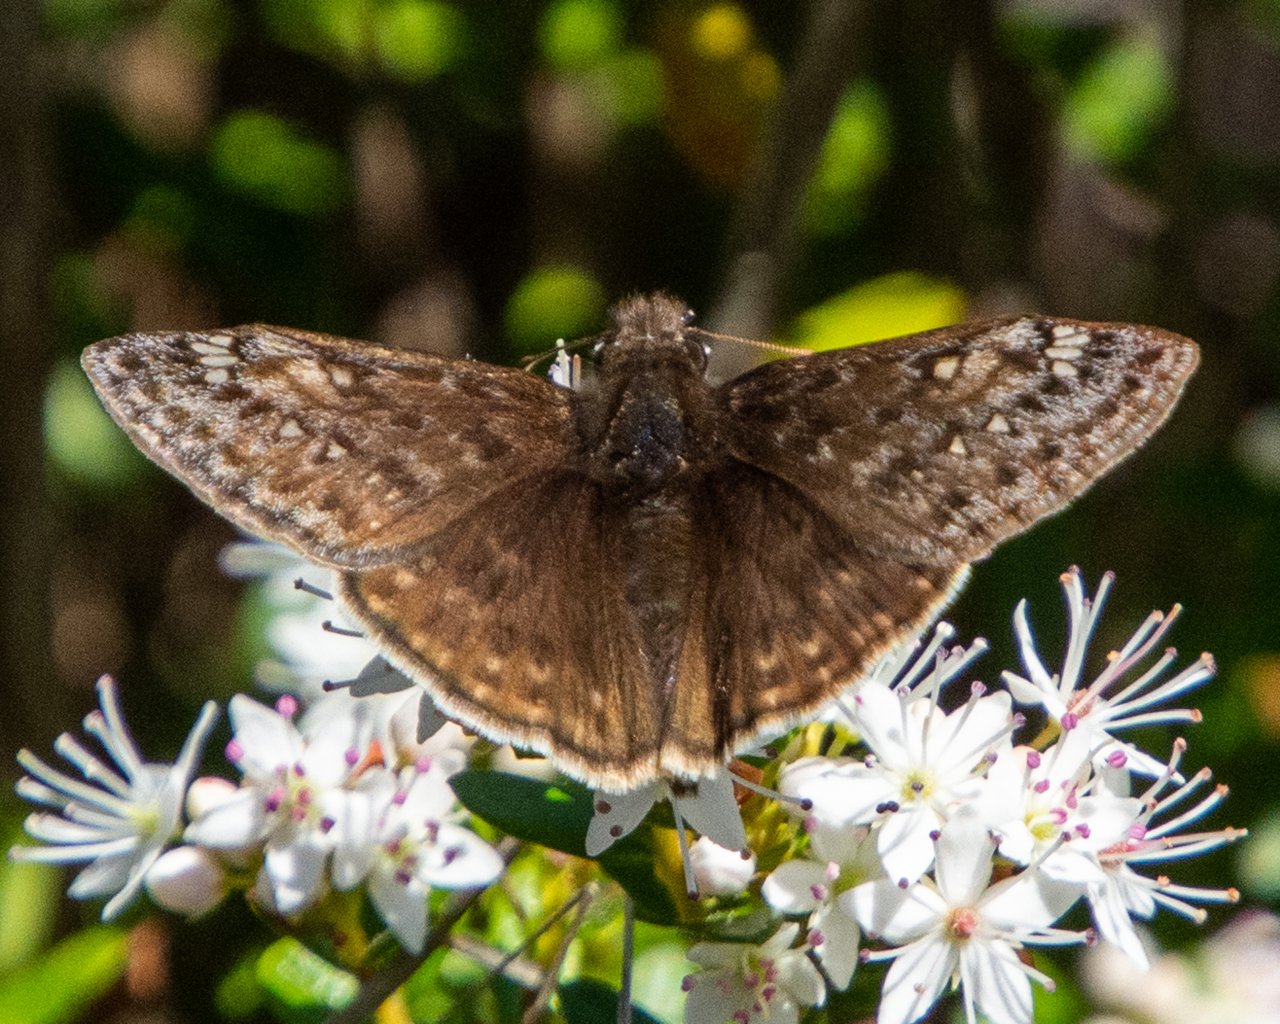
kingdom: Animalia
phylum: Arthropoda
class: Insecta
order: Lepidoptera
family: Hesperiidae
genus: Gesta
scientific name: Gesta
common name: Juvenal's Duskywing
